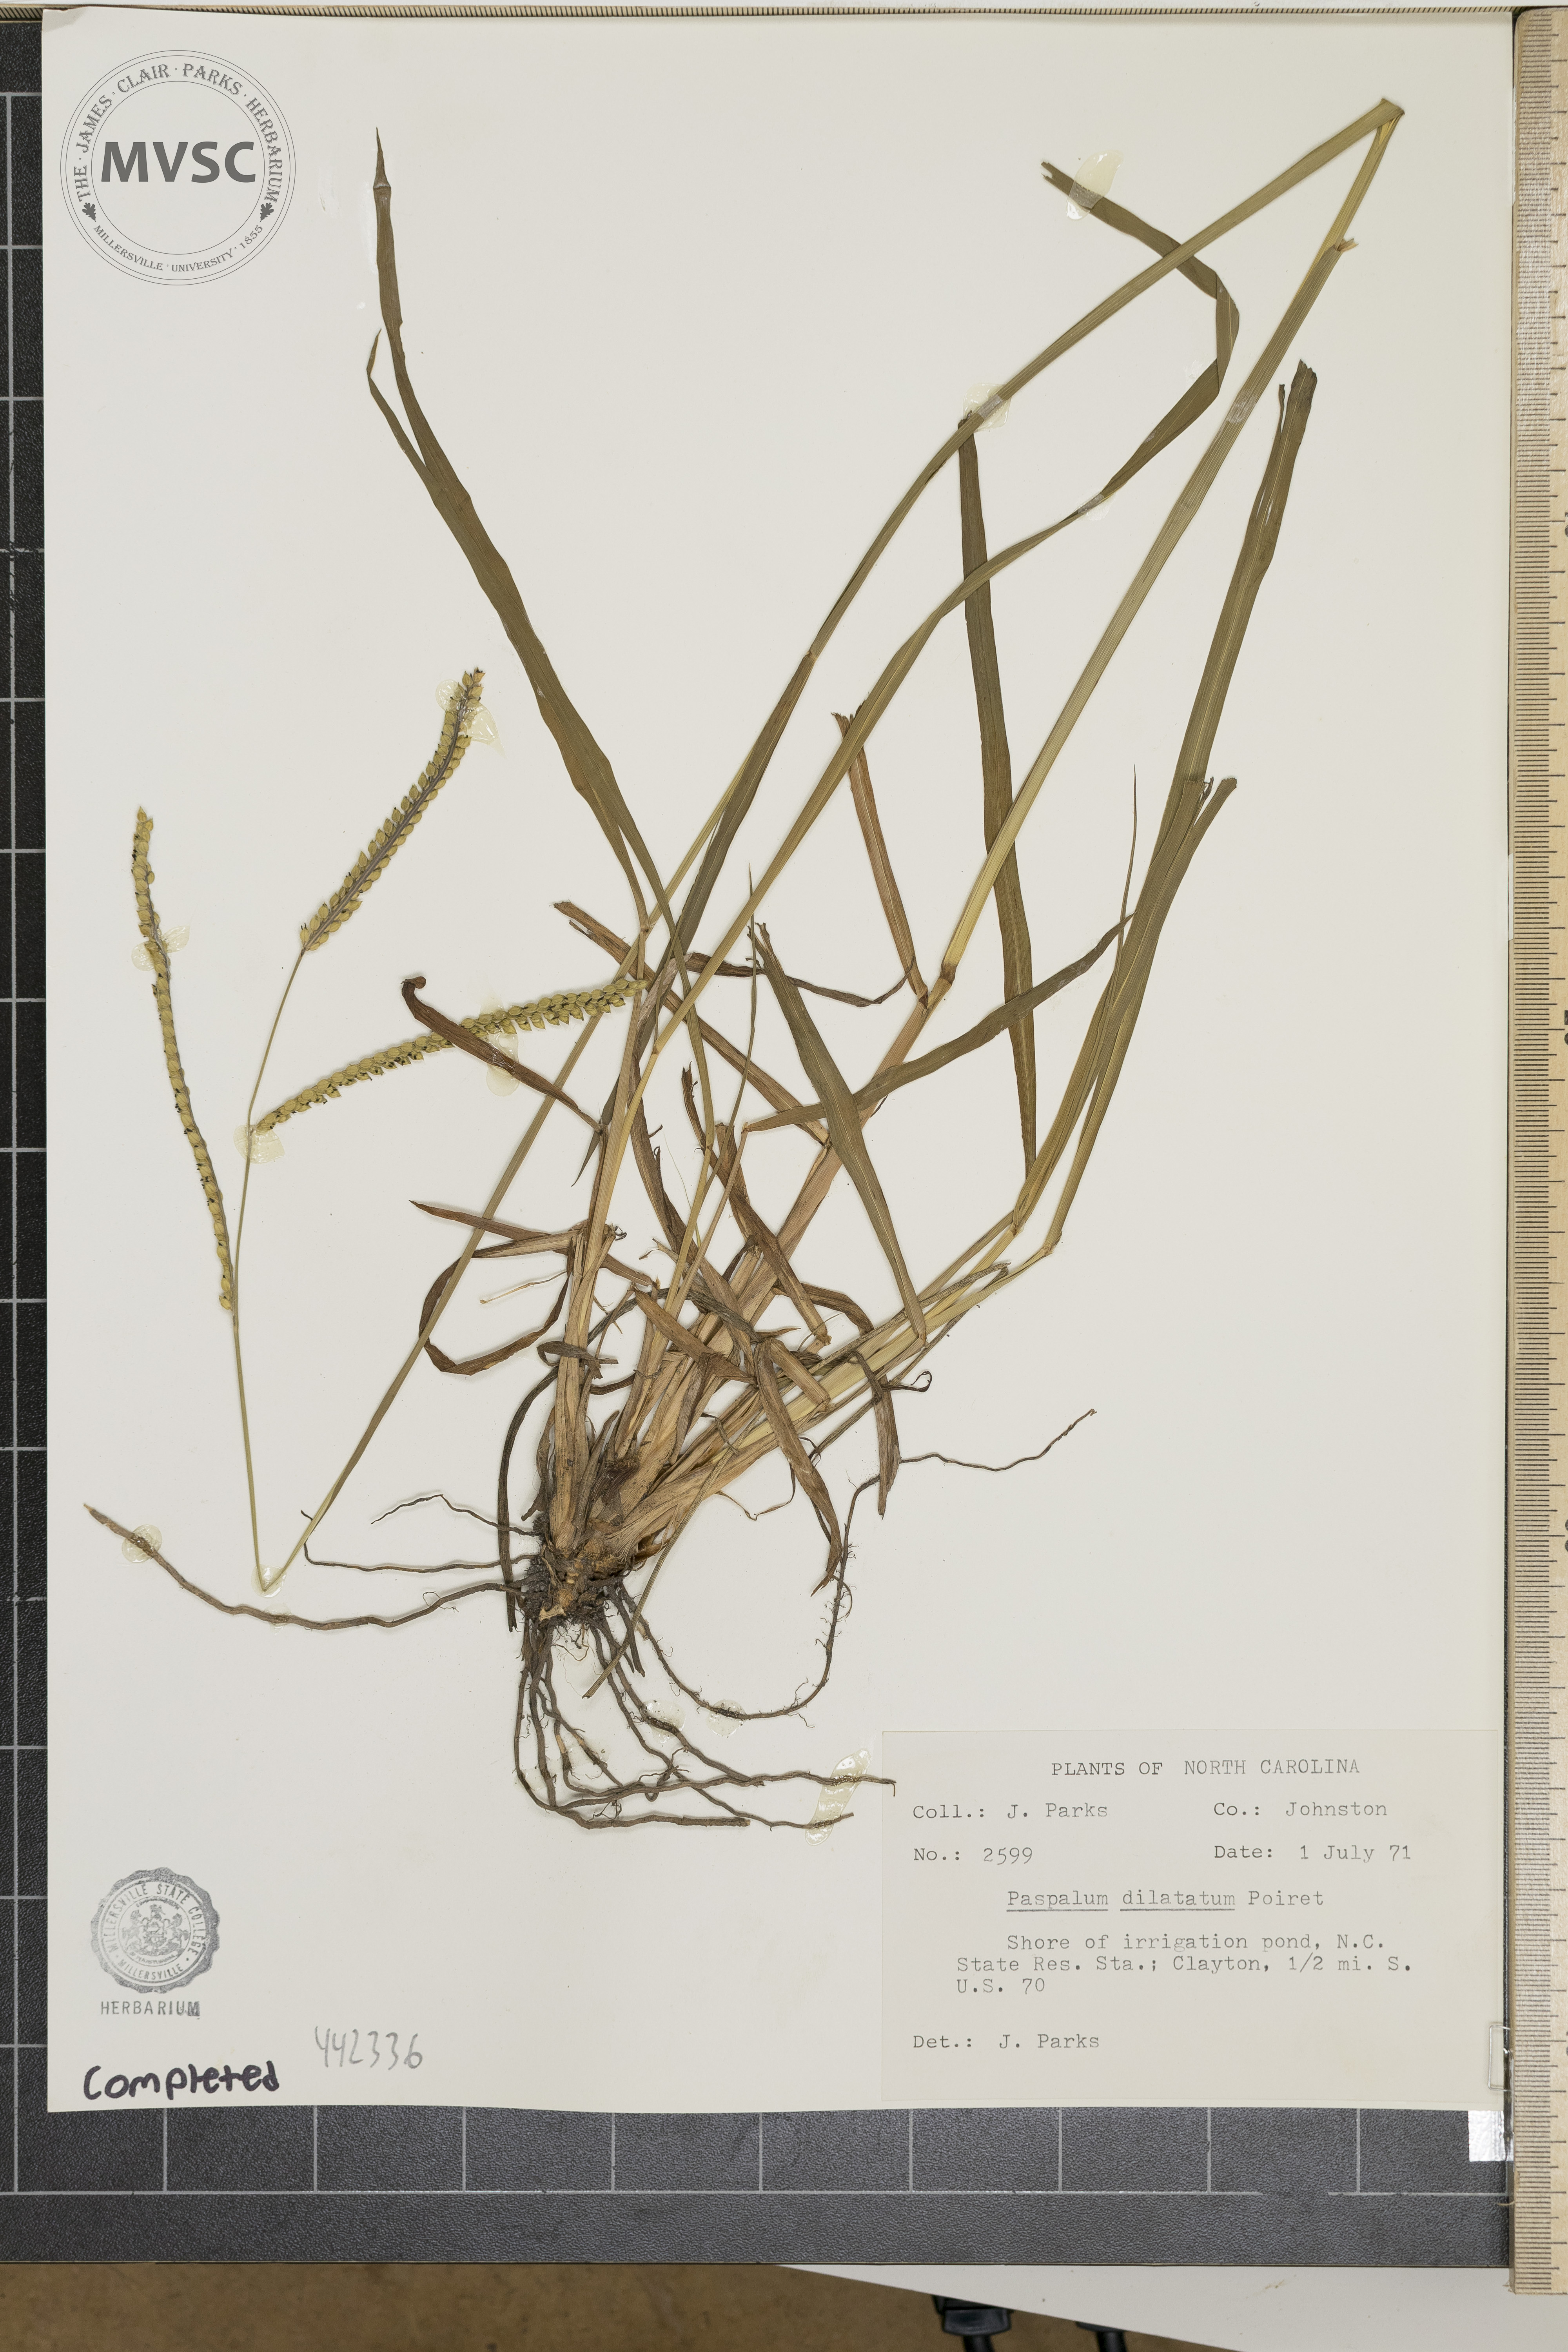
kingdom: Plantae
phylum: Tracheophyta
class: Liliopsida
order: Poales
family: Poaceae
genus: Paspalum
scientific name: Paspalum dilatatum
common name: Dallisgrass
